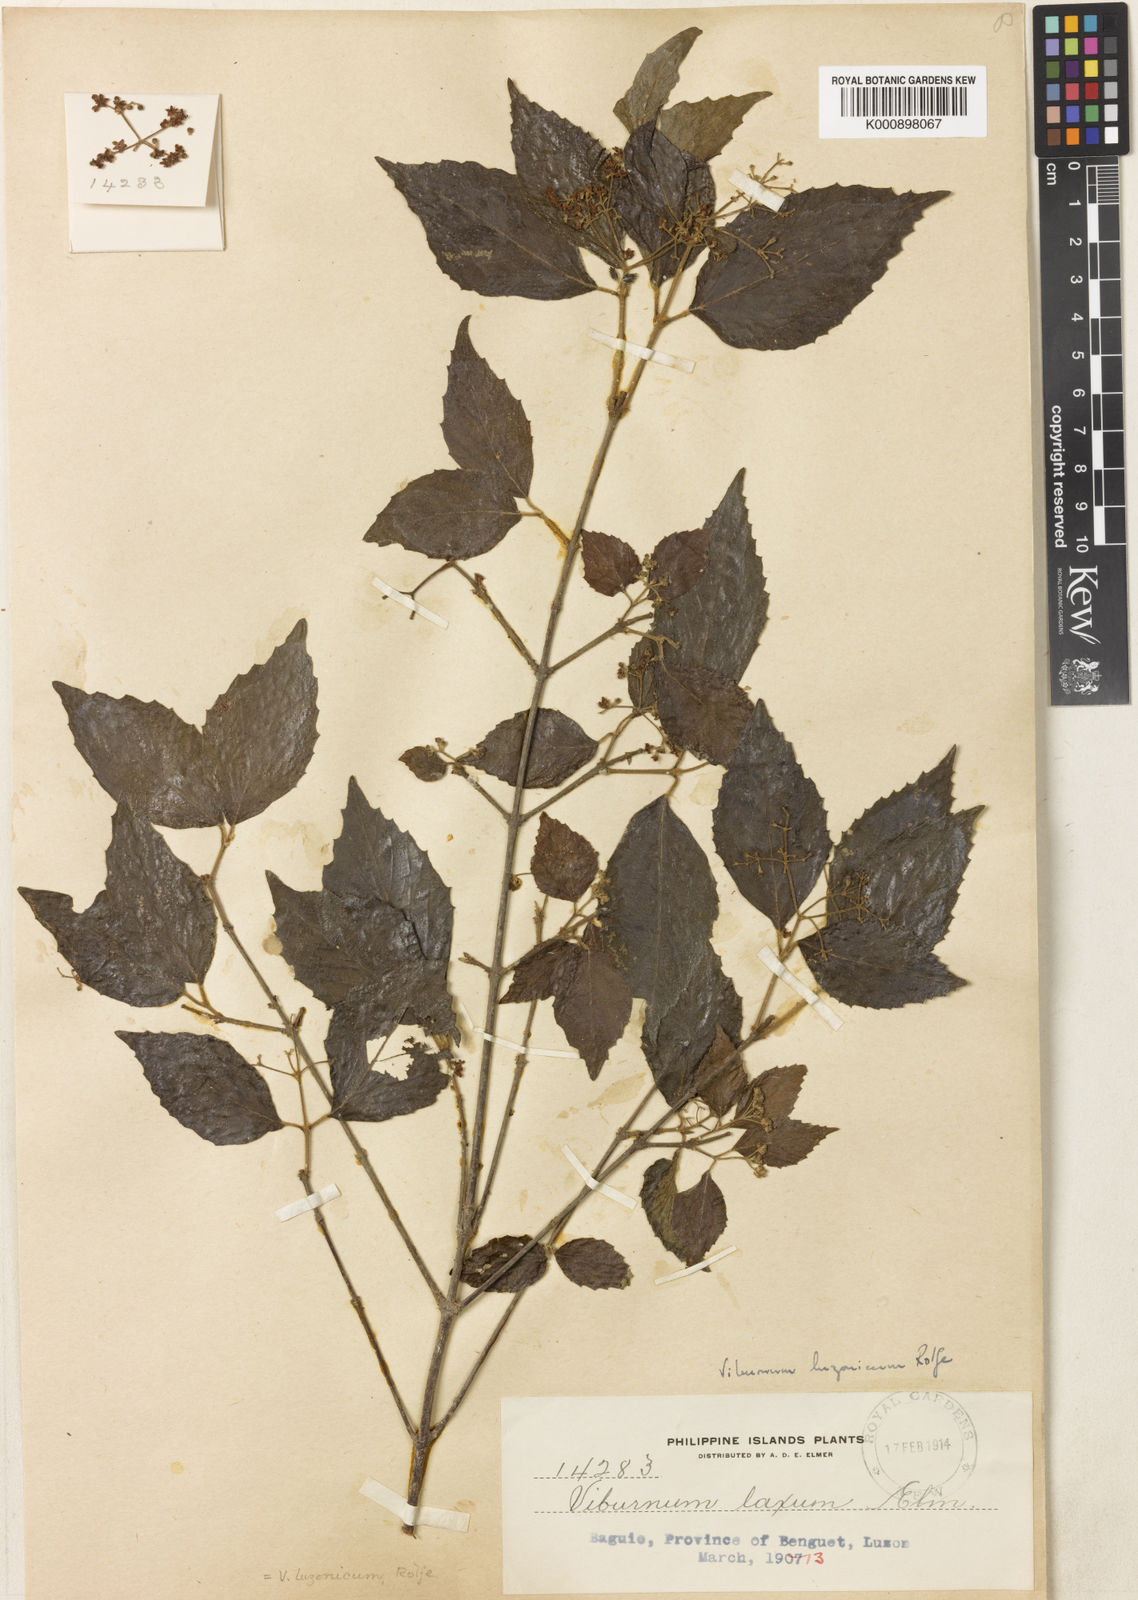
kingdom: Plantae
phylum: Tracheophyta
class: Magnoliopsida
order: Dipsacales
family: Viburnaceae
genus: Viburnum
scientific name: Viburnum luzonicum
